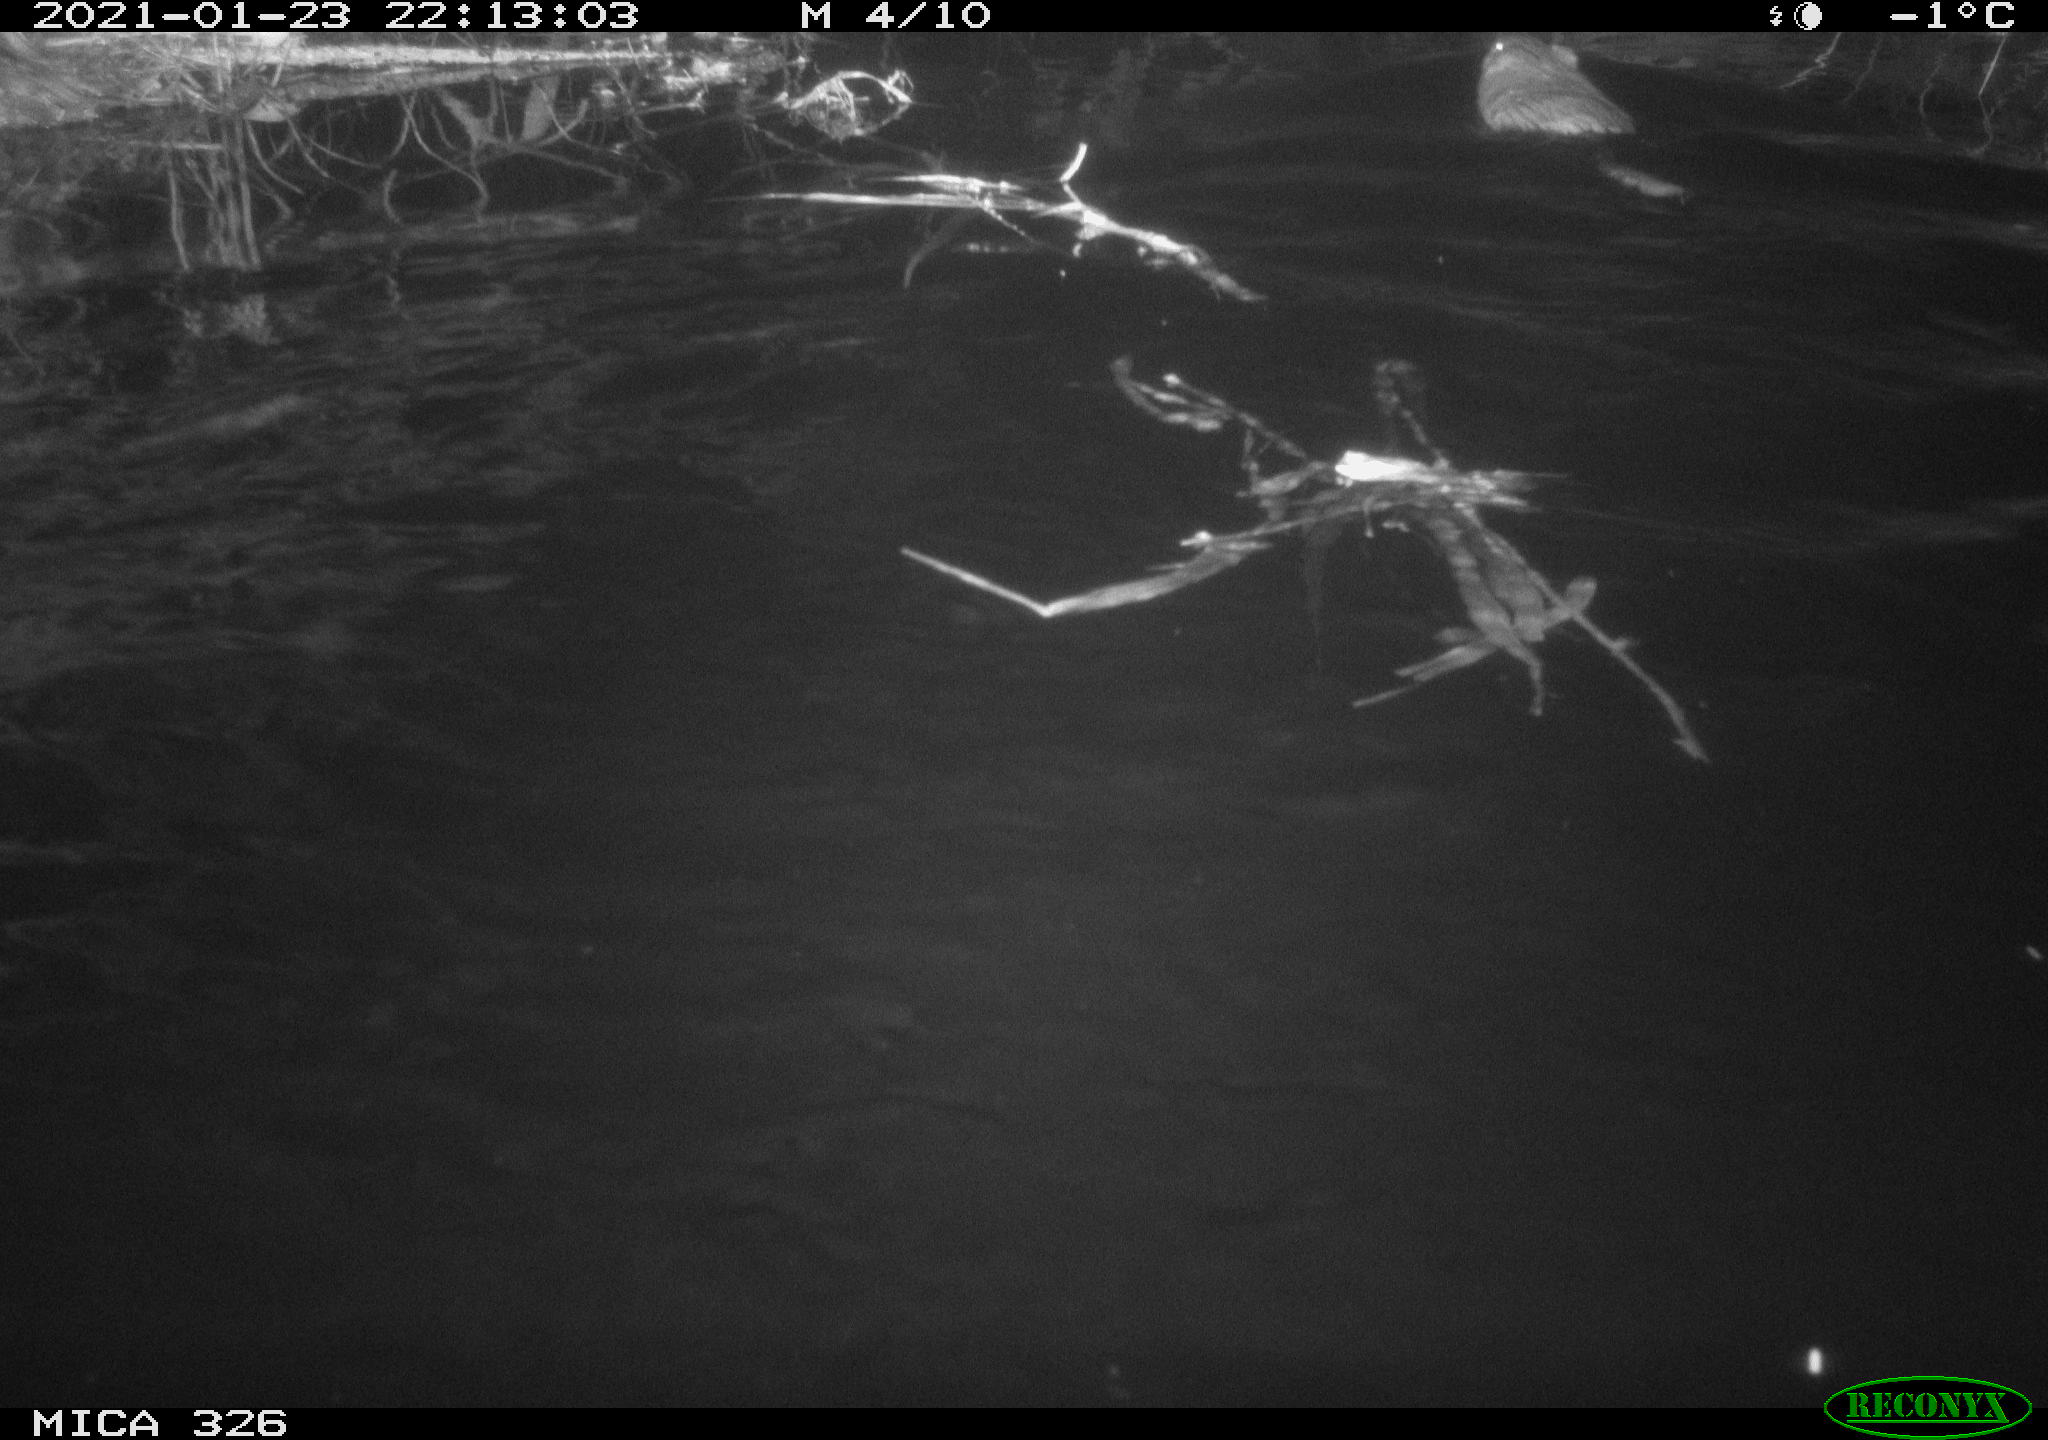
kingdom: Animalia
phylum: Chordata
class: Mammalia
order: Rodentia
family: Cricetidae
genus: Ondatra
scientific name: Ondatra zibethicus
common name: Muskrat
